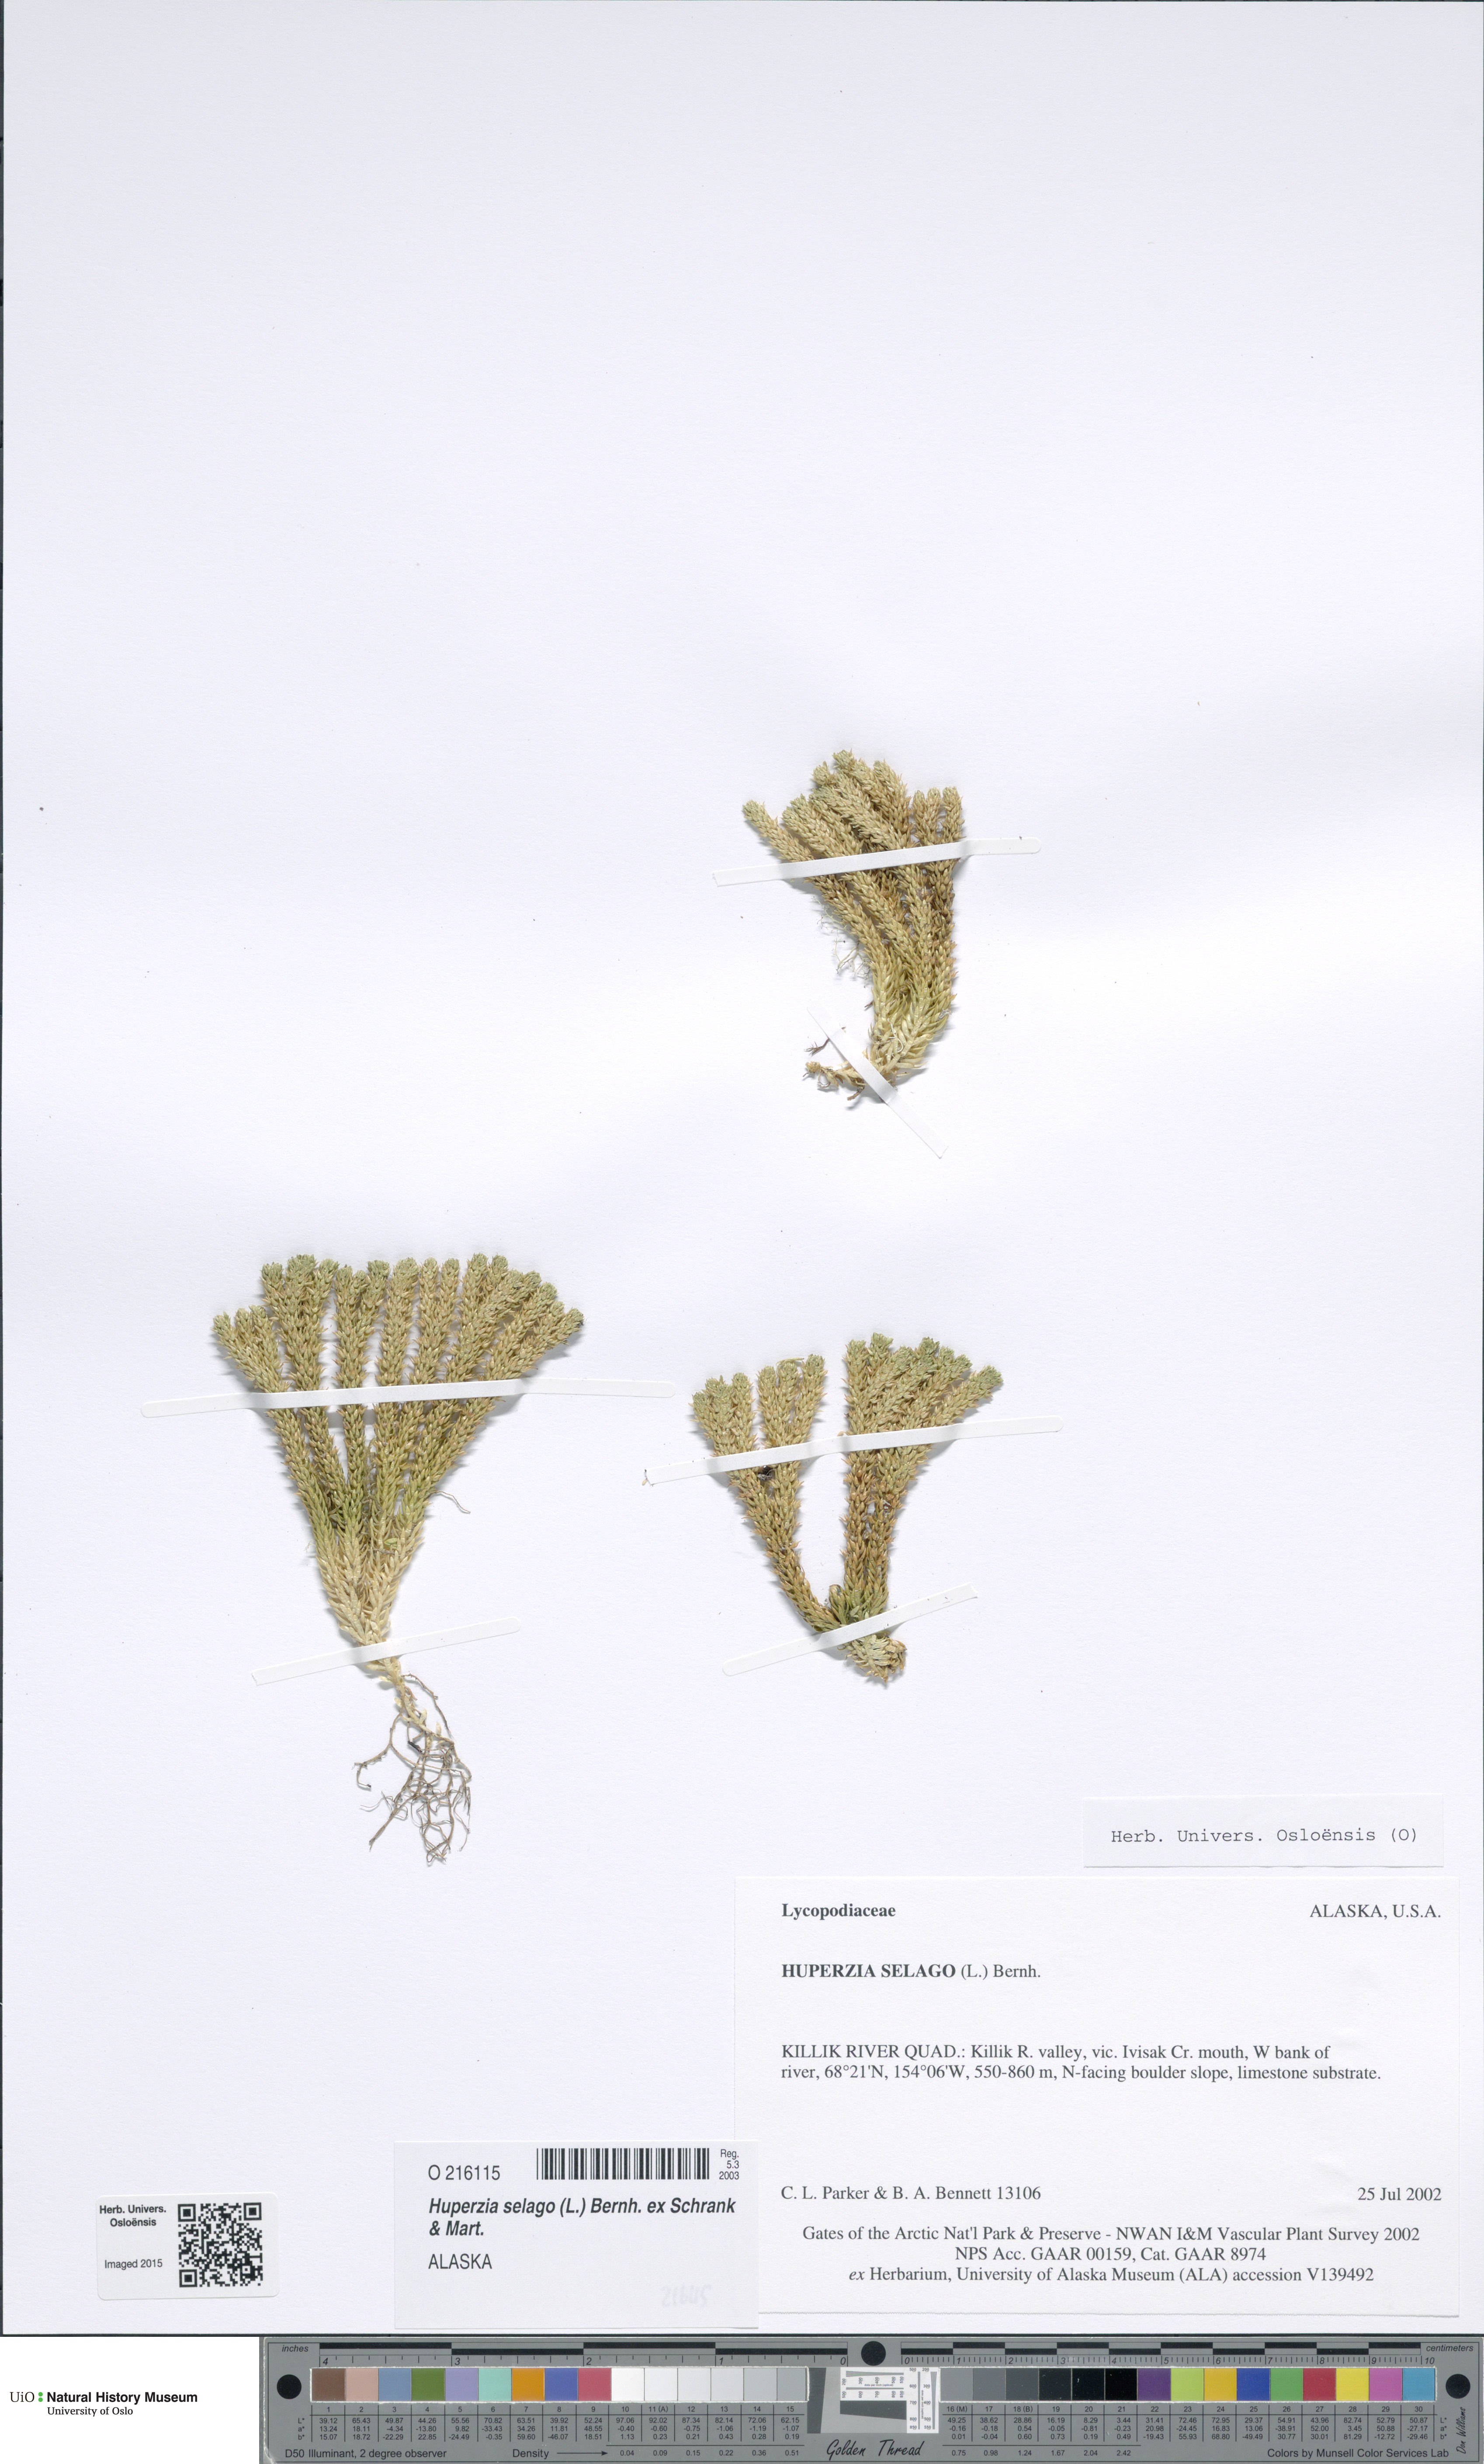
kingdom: Plantae
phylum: Tracheophyta
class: Lycopodiopsida
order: Lycopodiales
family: Lycopodiaceae
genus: Huperzia
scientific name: Huperzia selago
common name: Northern firmoss
